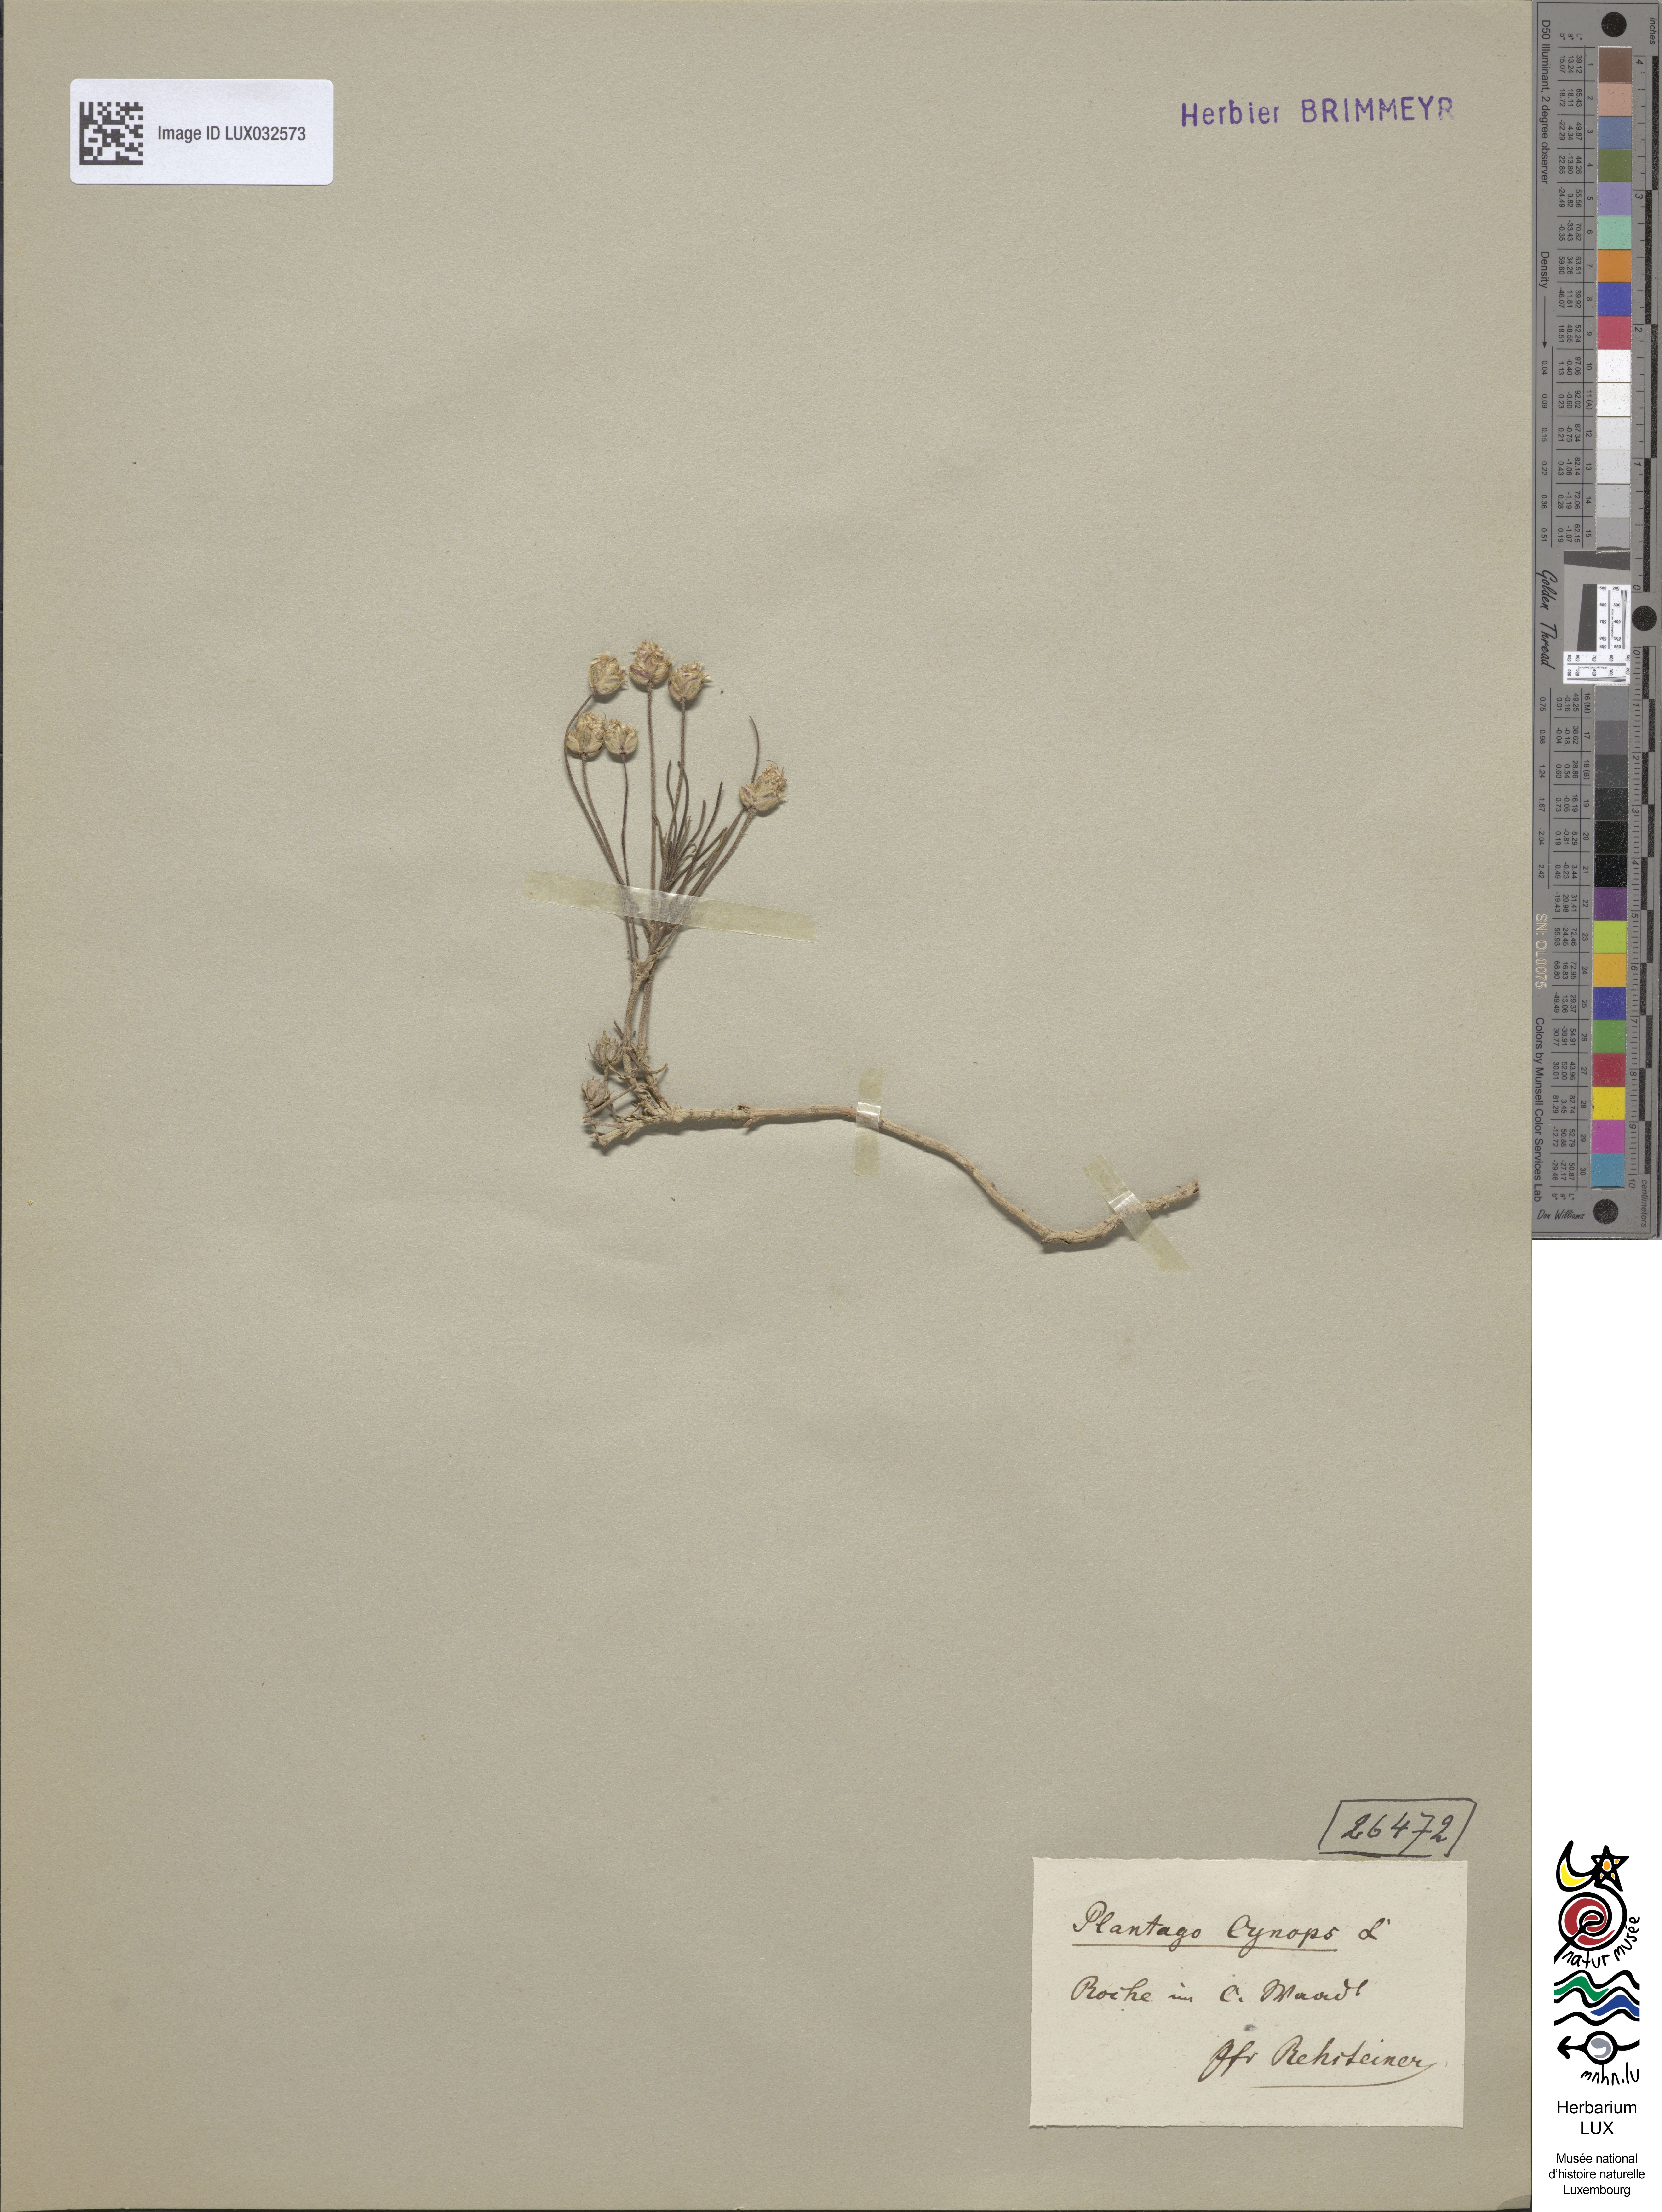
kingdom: Plantae
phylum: Tracheophyta
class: Magnoliopsida
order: Lamiales
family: Plantaginaceae
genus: Plantago
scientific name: Plantago sempervirens
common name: Shrubby plantain
